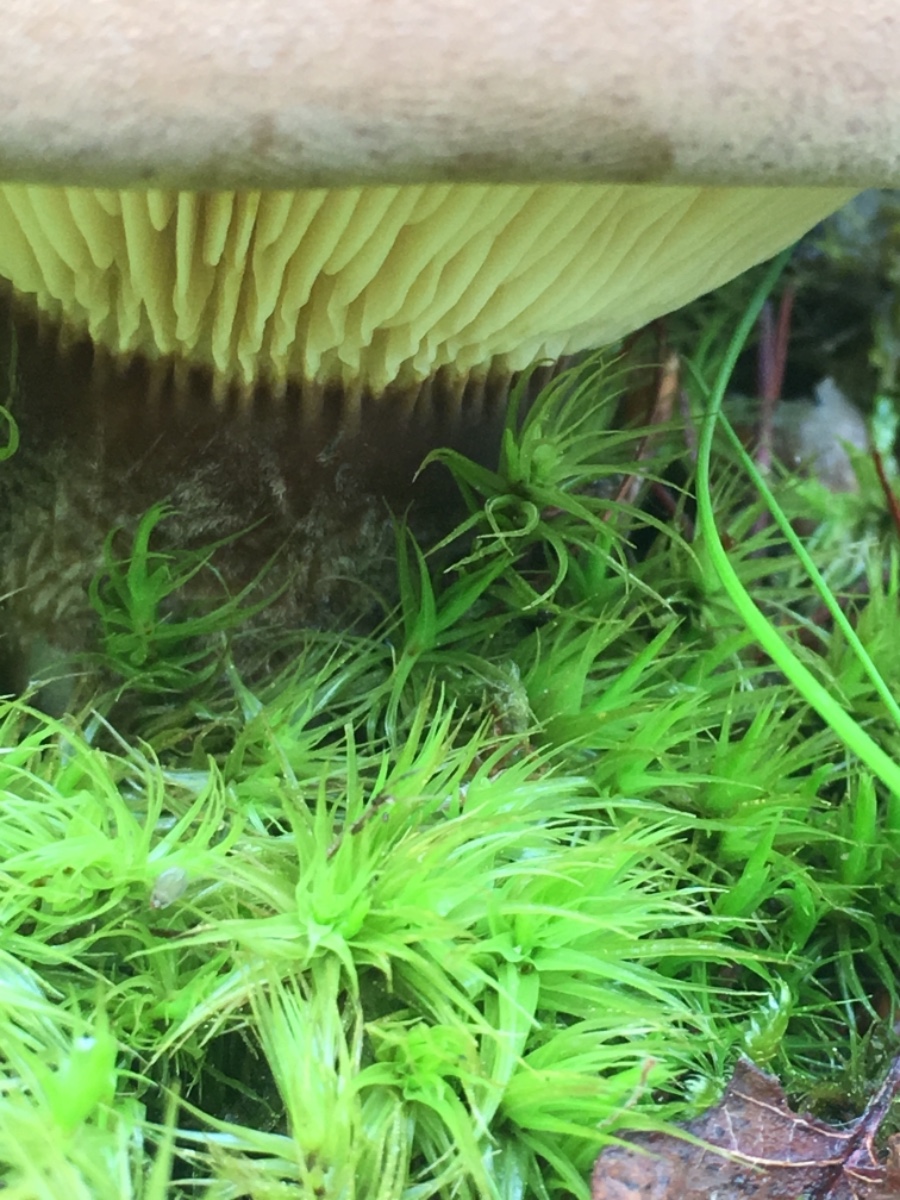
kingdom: Fungi
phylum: Basidiomycota
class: Agaricomycetes
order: Boletales
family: Tapinellaceae
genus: Tapinella
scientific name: Tapinella atrotomentosa
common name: sortfiltet viftesvamp
